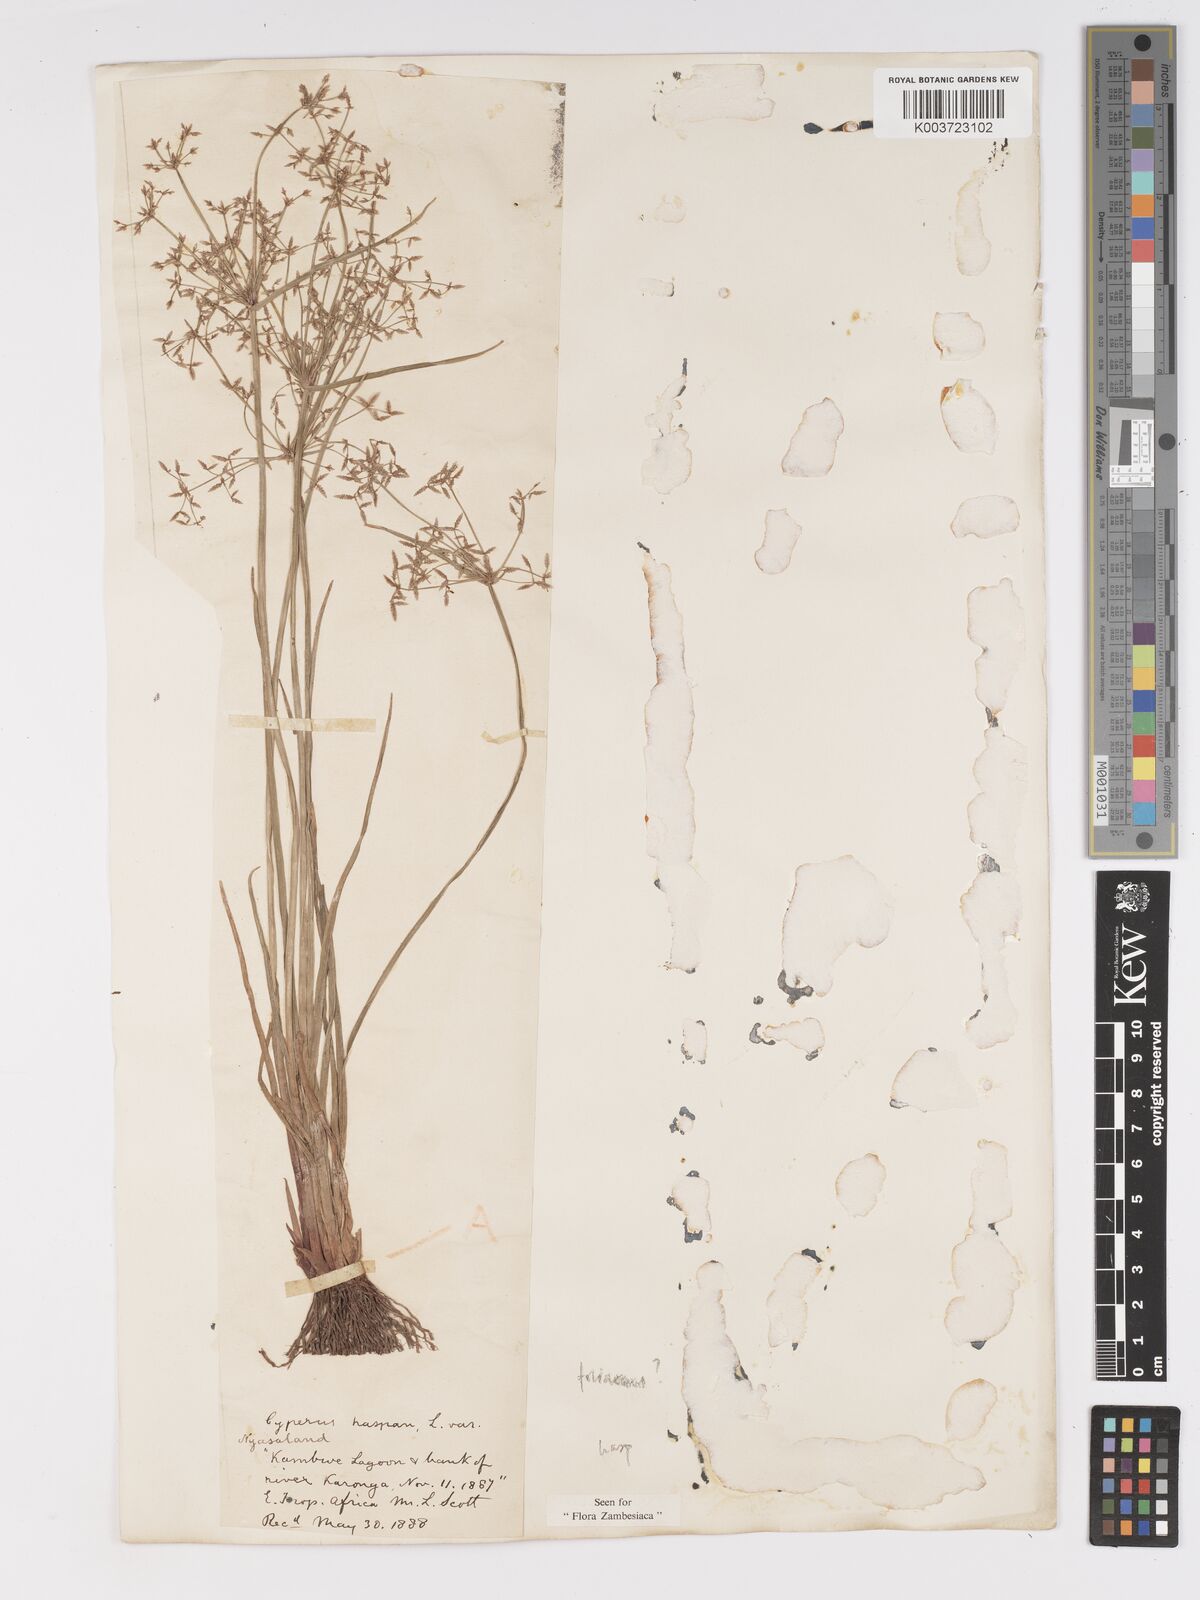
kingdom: Plantae
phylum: Tracheophyta
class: Liliopsida
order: Poales
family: Cyperaceae
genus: Cyperus
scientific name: Cyperus haspan
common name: Haspan flatsedge
